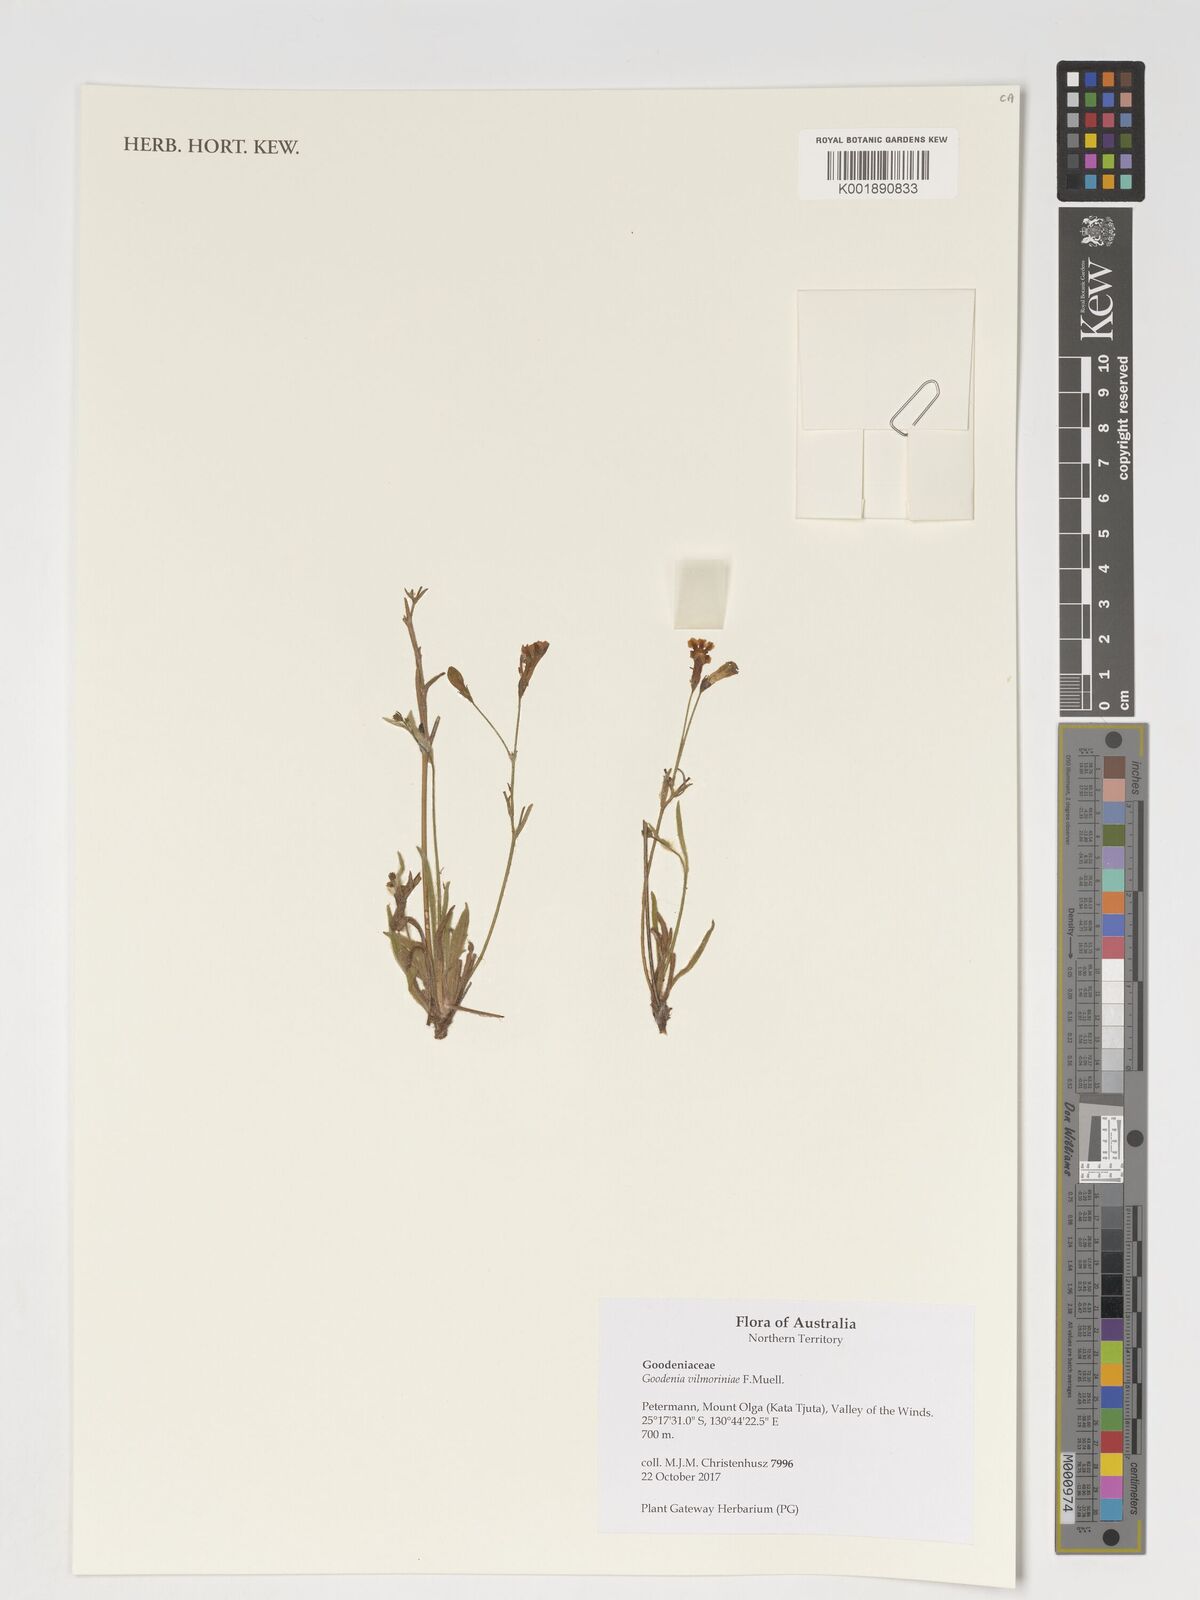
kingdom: Plantae
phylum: Tracheophyta
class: Magnoliopsida
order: Asterales
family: Goodeniaceae
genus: Goodenia
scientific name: Goodenia vilmoriniae
